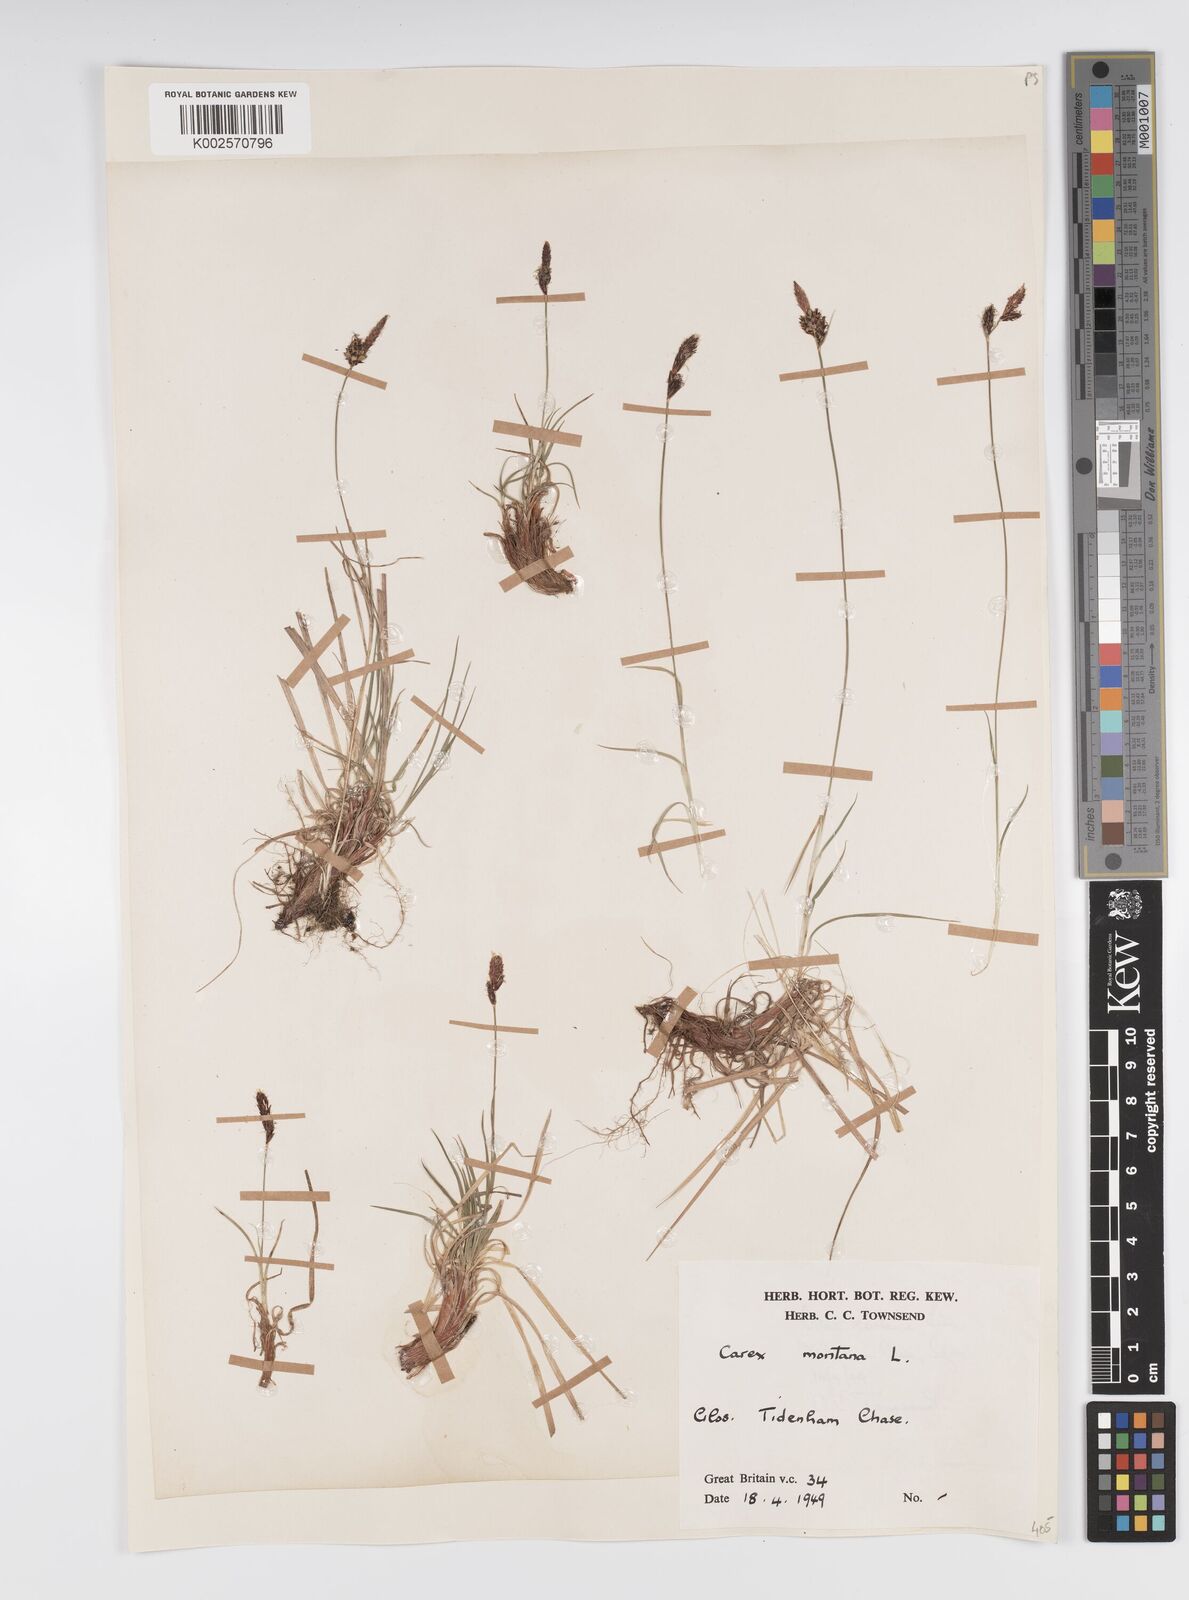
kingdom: Plantae
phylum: Tracheophyta
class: Liliopsida
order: Poales
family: Cyperaceae
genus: Carex
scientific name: Carex montana
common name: Soft-leaved sedge
